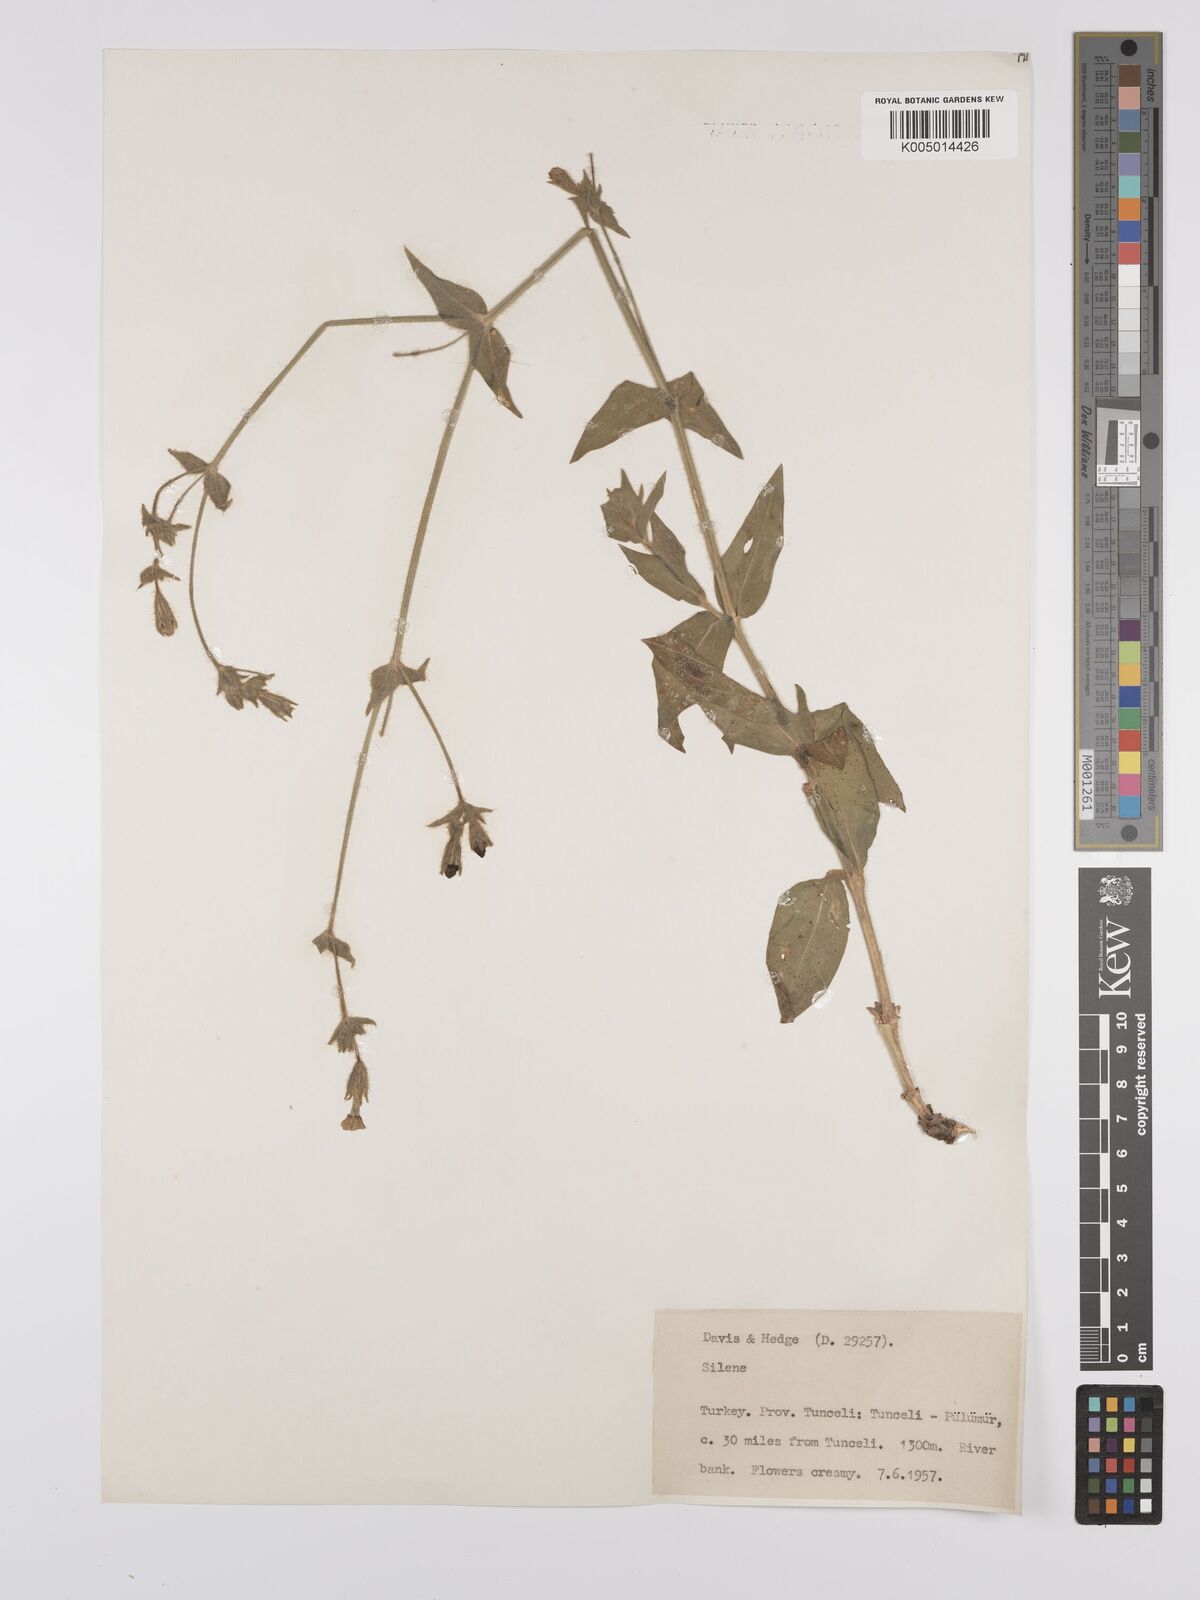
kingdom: Plantae
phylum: Tracheophyta
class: Magnoliopsida
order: Caryophyllales
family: Caryophyllaceae
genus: Silene
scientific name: Silene
